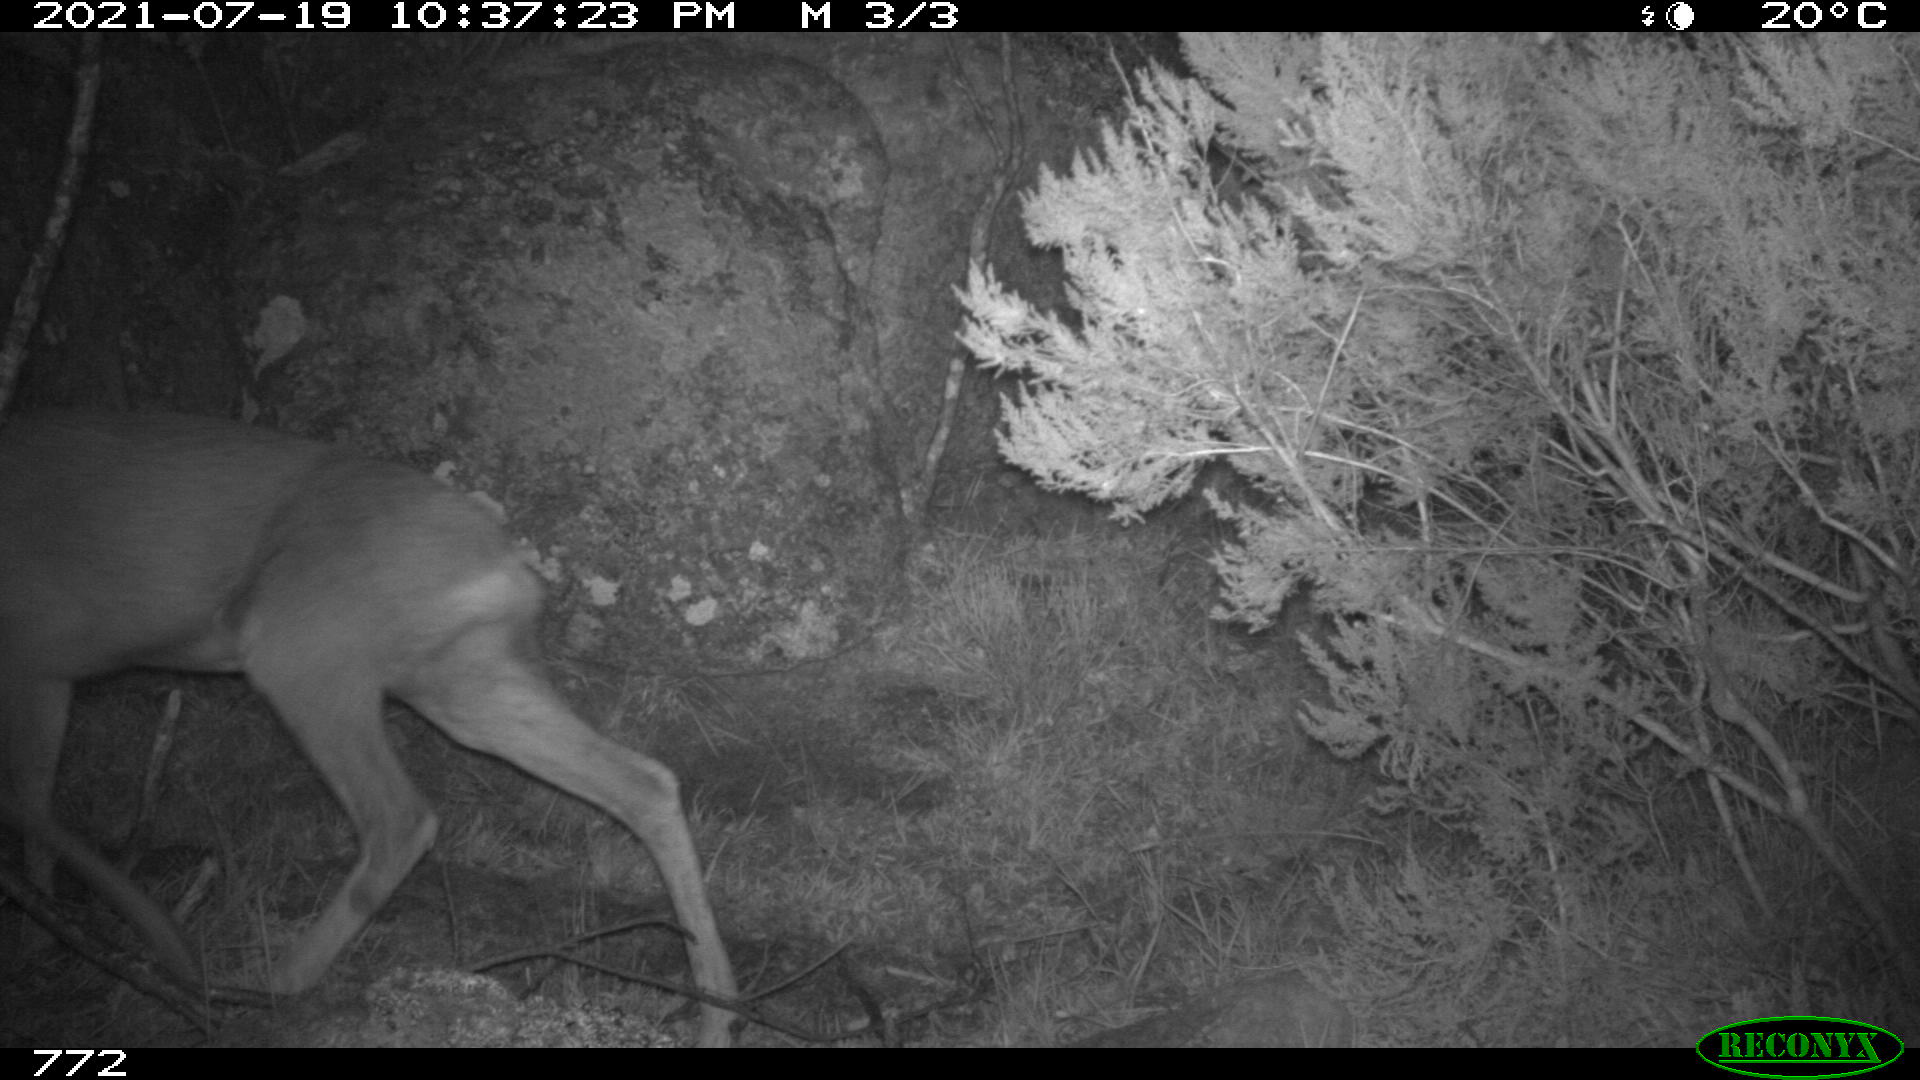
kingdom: Animalia
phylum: Chordata
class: Mammalia
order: Artiodactyla
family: Cervidae
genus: Capreolus
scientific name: Capreolus capreolus
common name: Western roe deer
